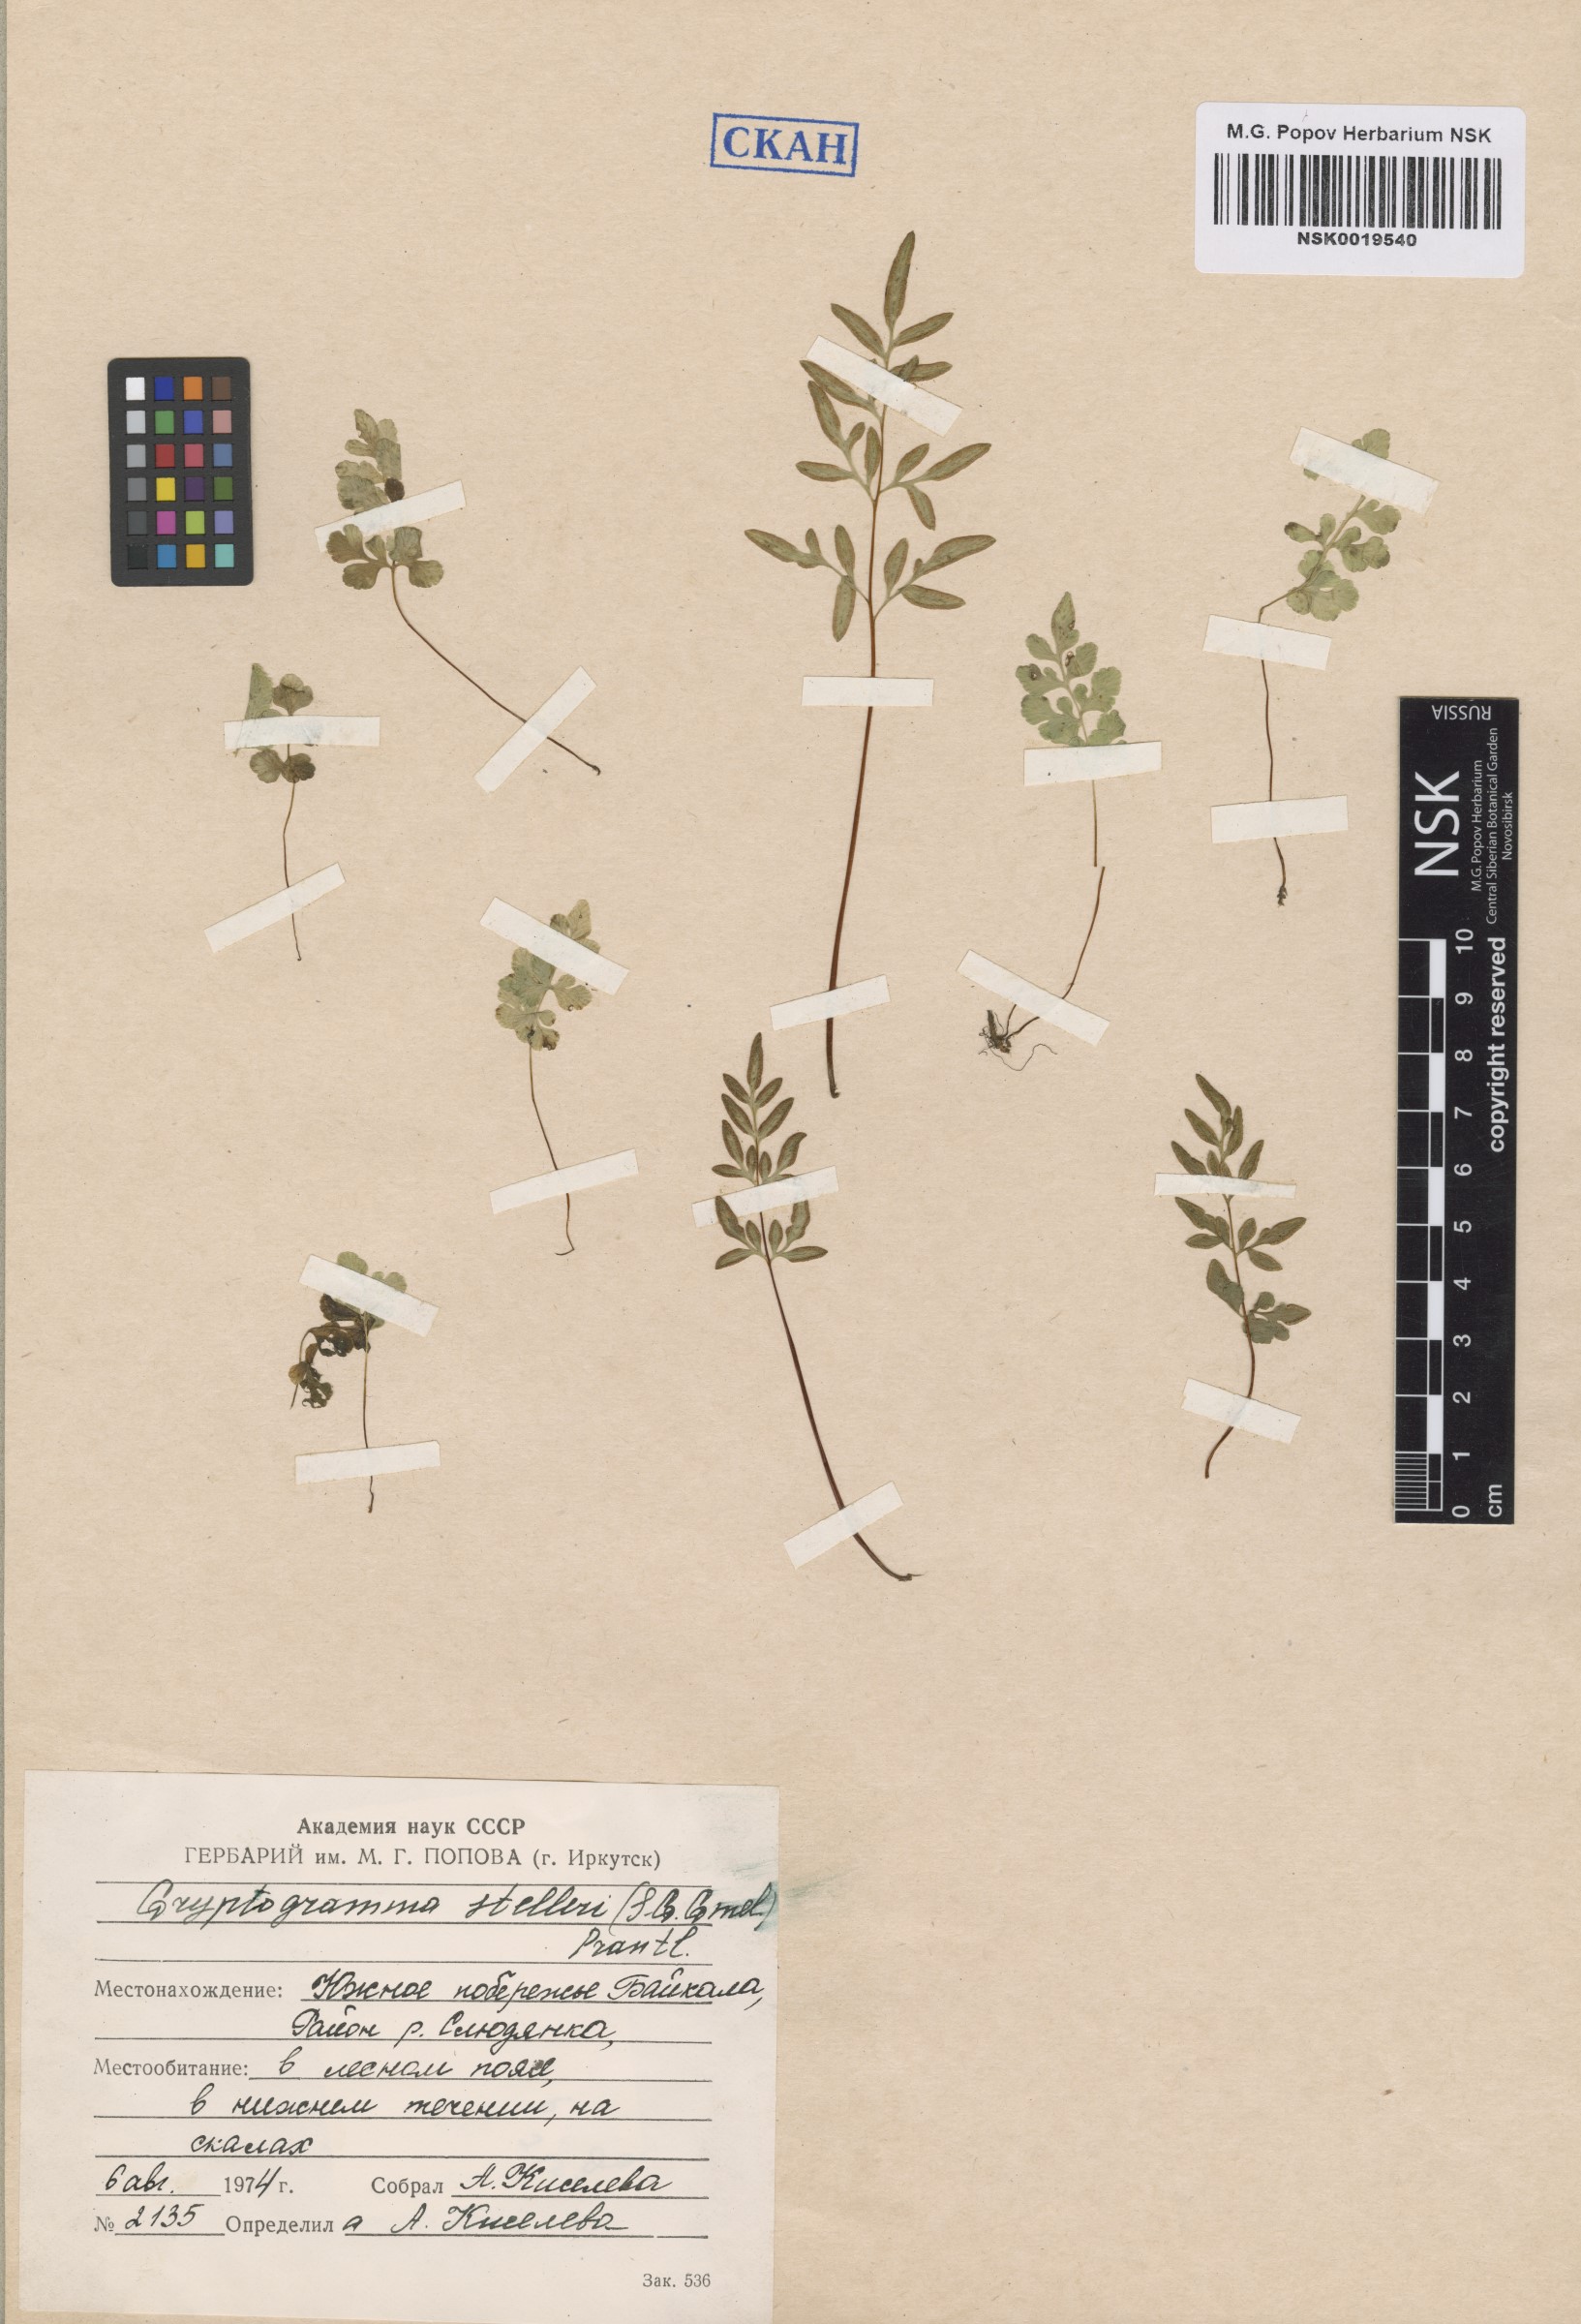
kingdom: Plantae
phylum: Tracheophyta
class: Polypodiopsida
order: Polypodiales
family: Pteridaceae
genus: Cryptogramma
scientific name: Cryptogramma stelleri
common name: Cliff-brake
